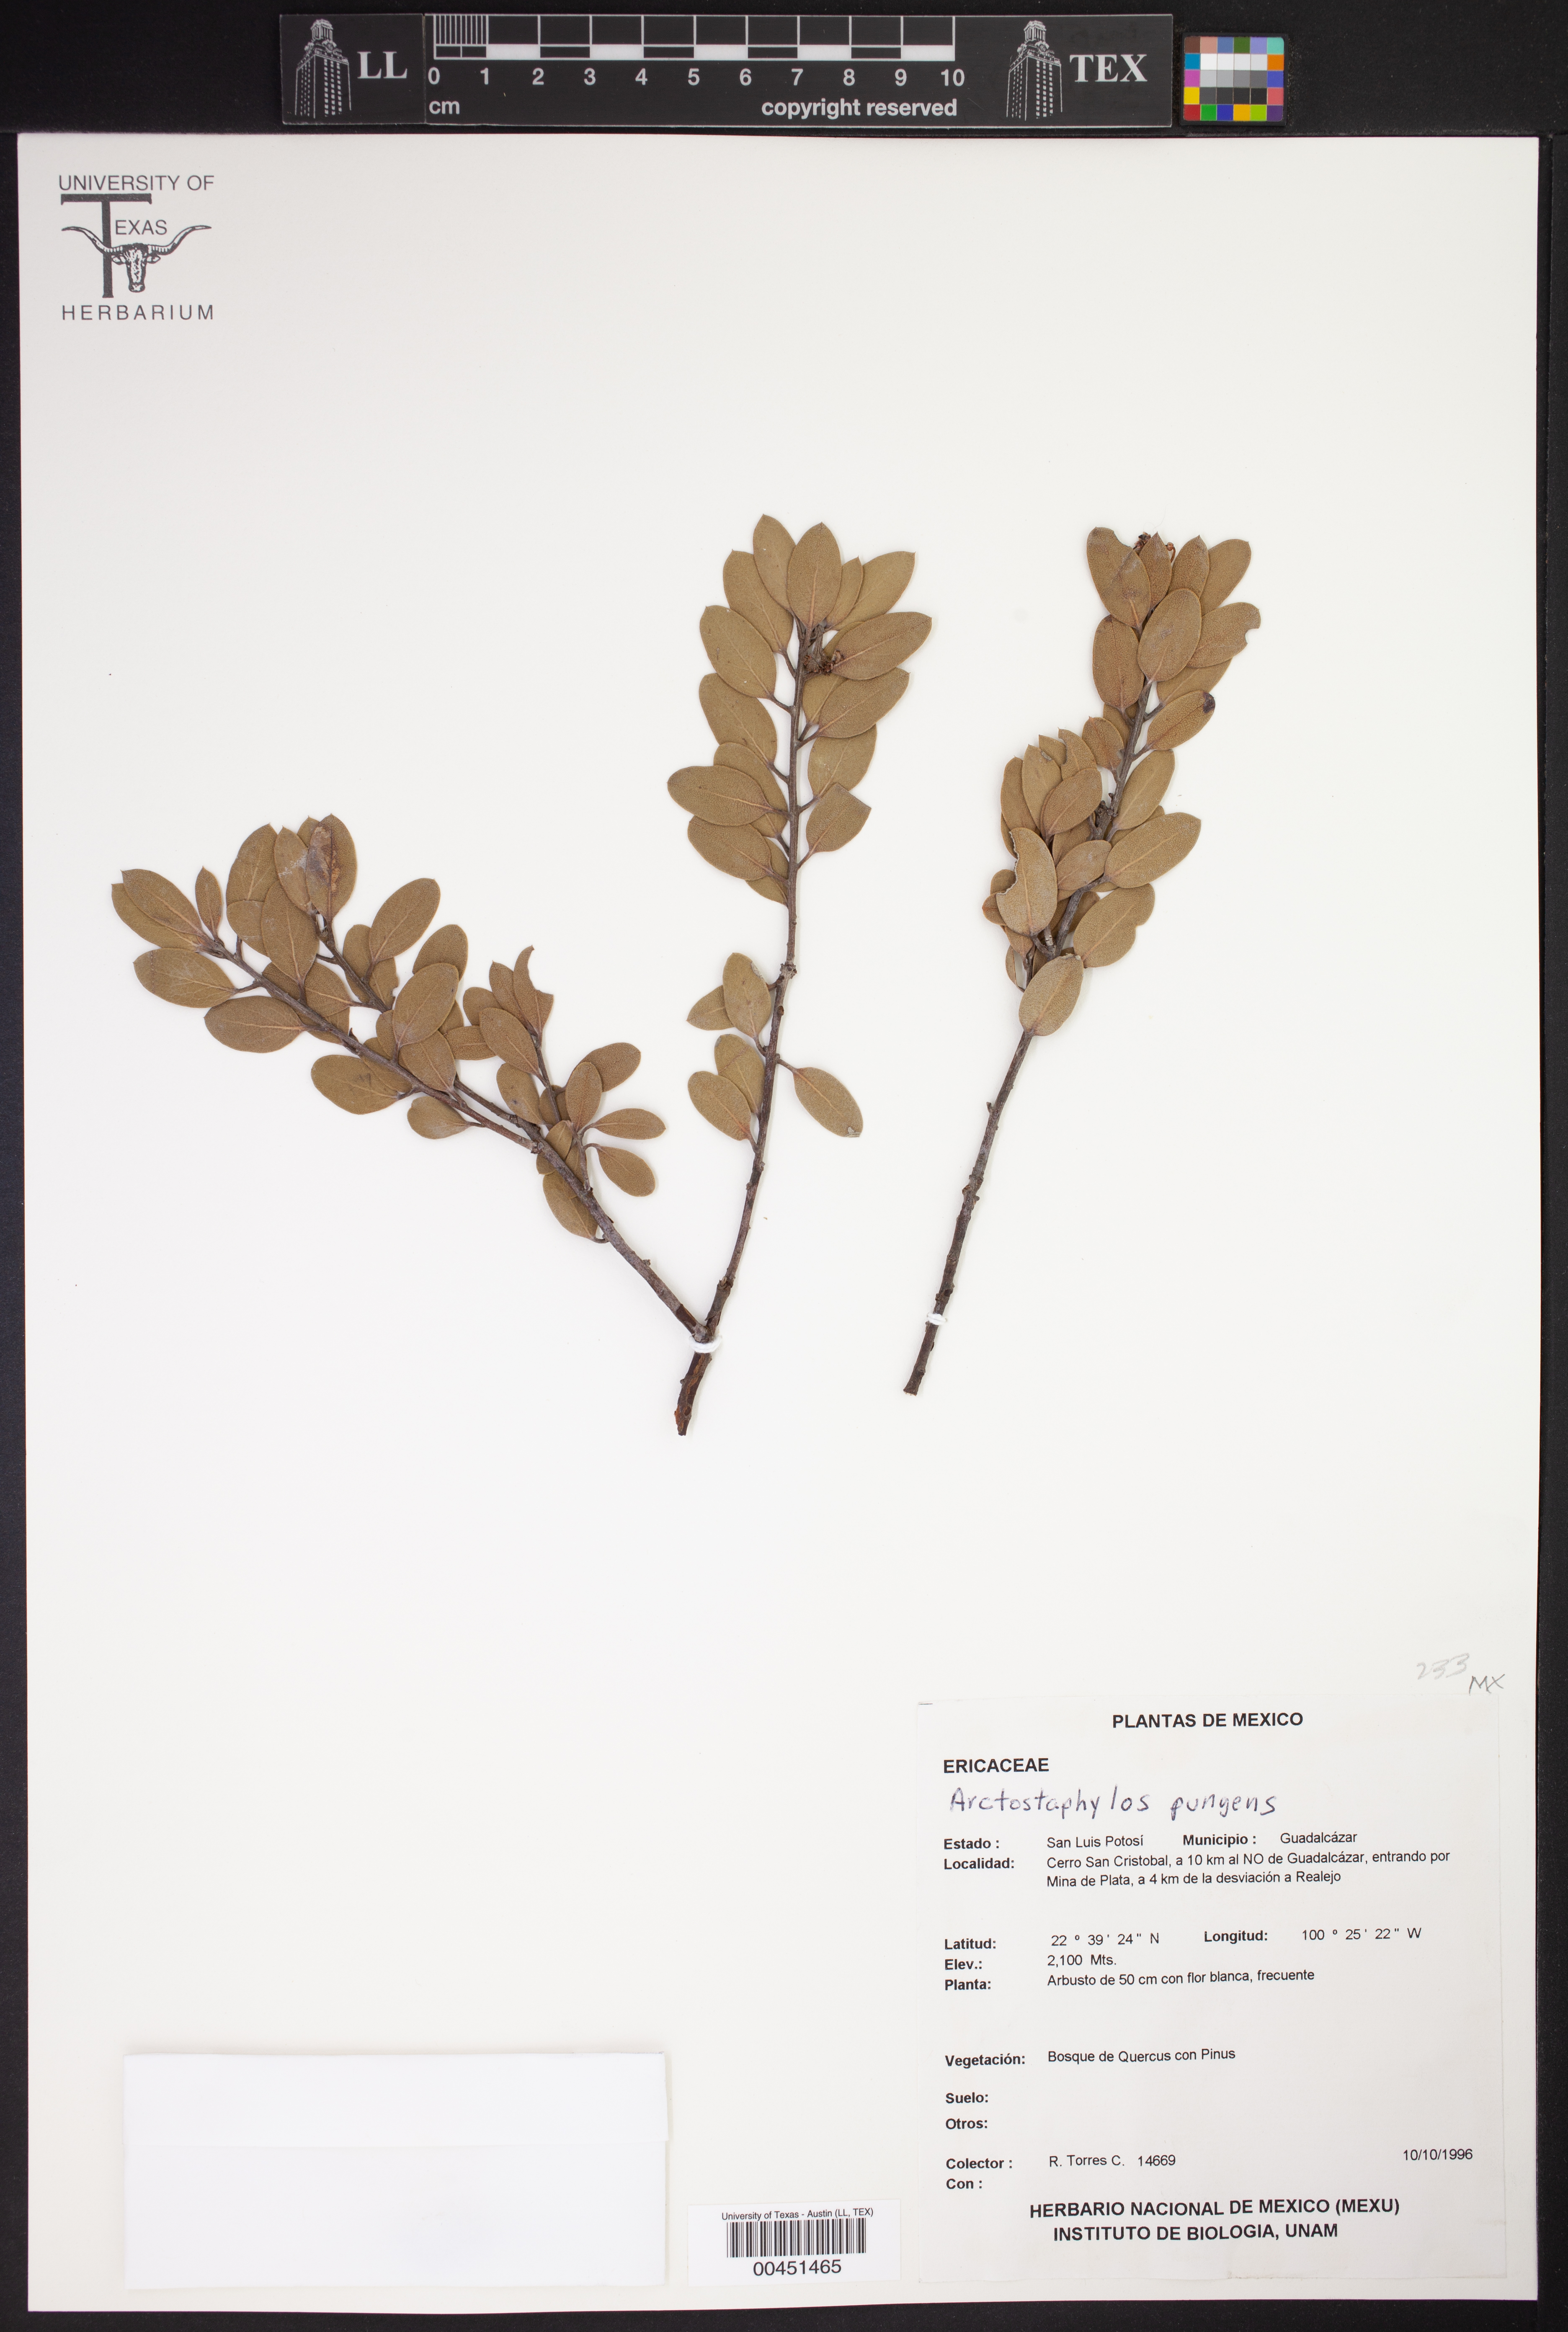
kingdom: Plantae
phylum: Tracheophyta
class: Magnoliopsida
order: Ericales
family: Ericaceae
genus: Arctostaphylos
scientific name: Arctostaphylos pungens
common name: Mexican manzanita
